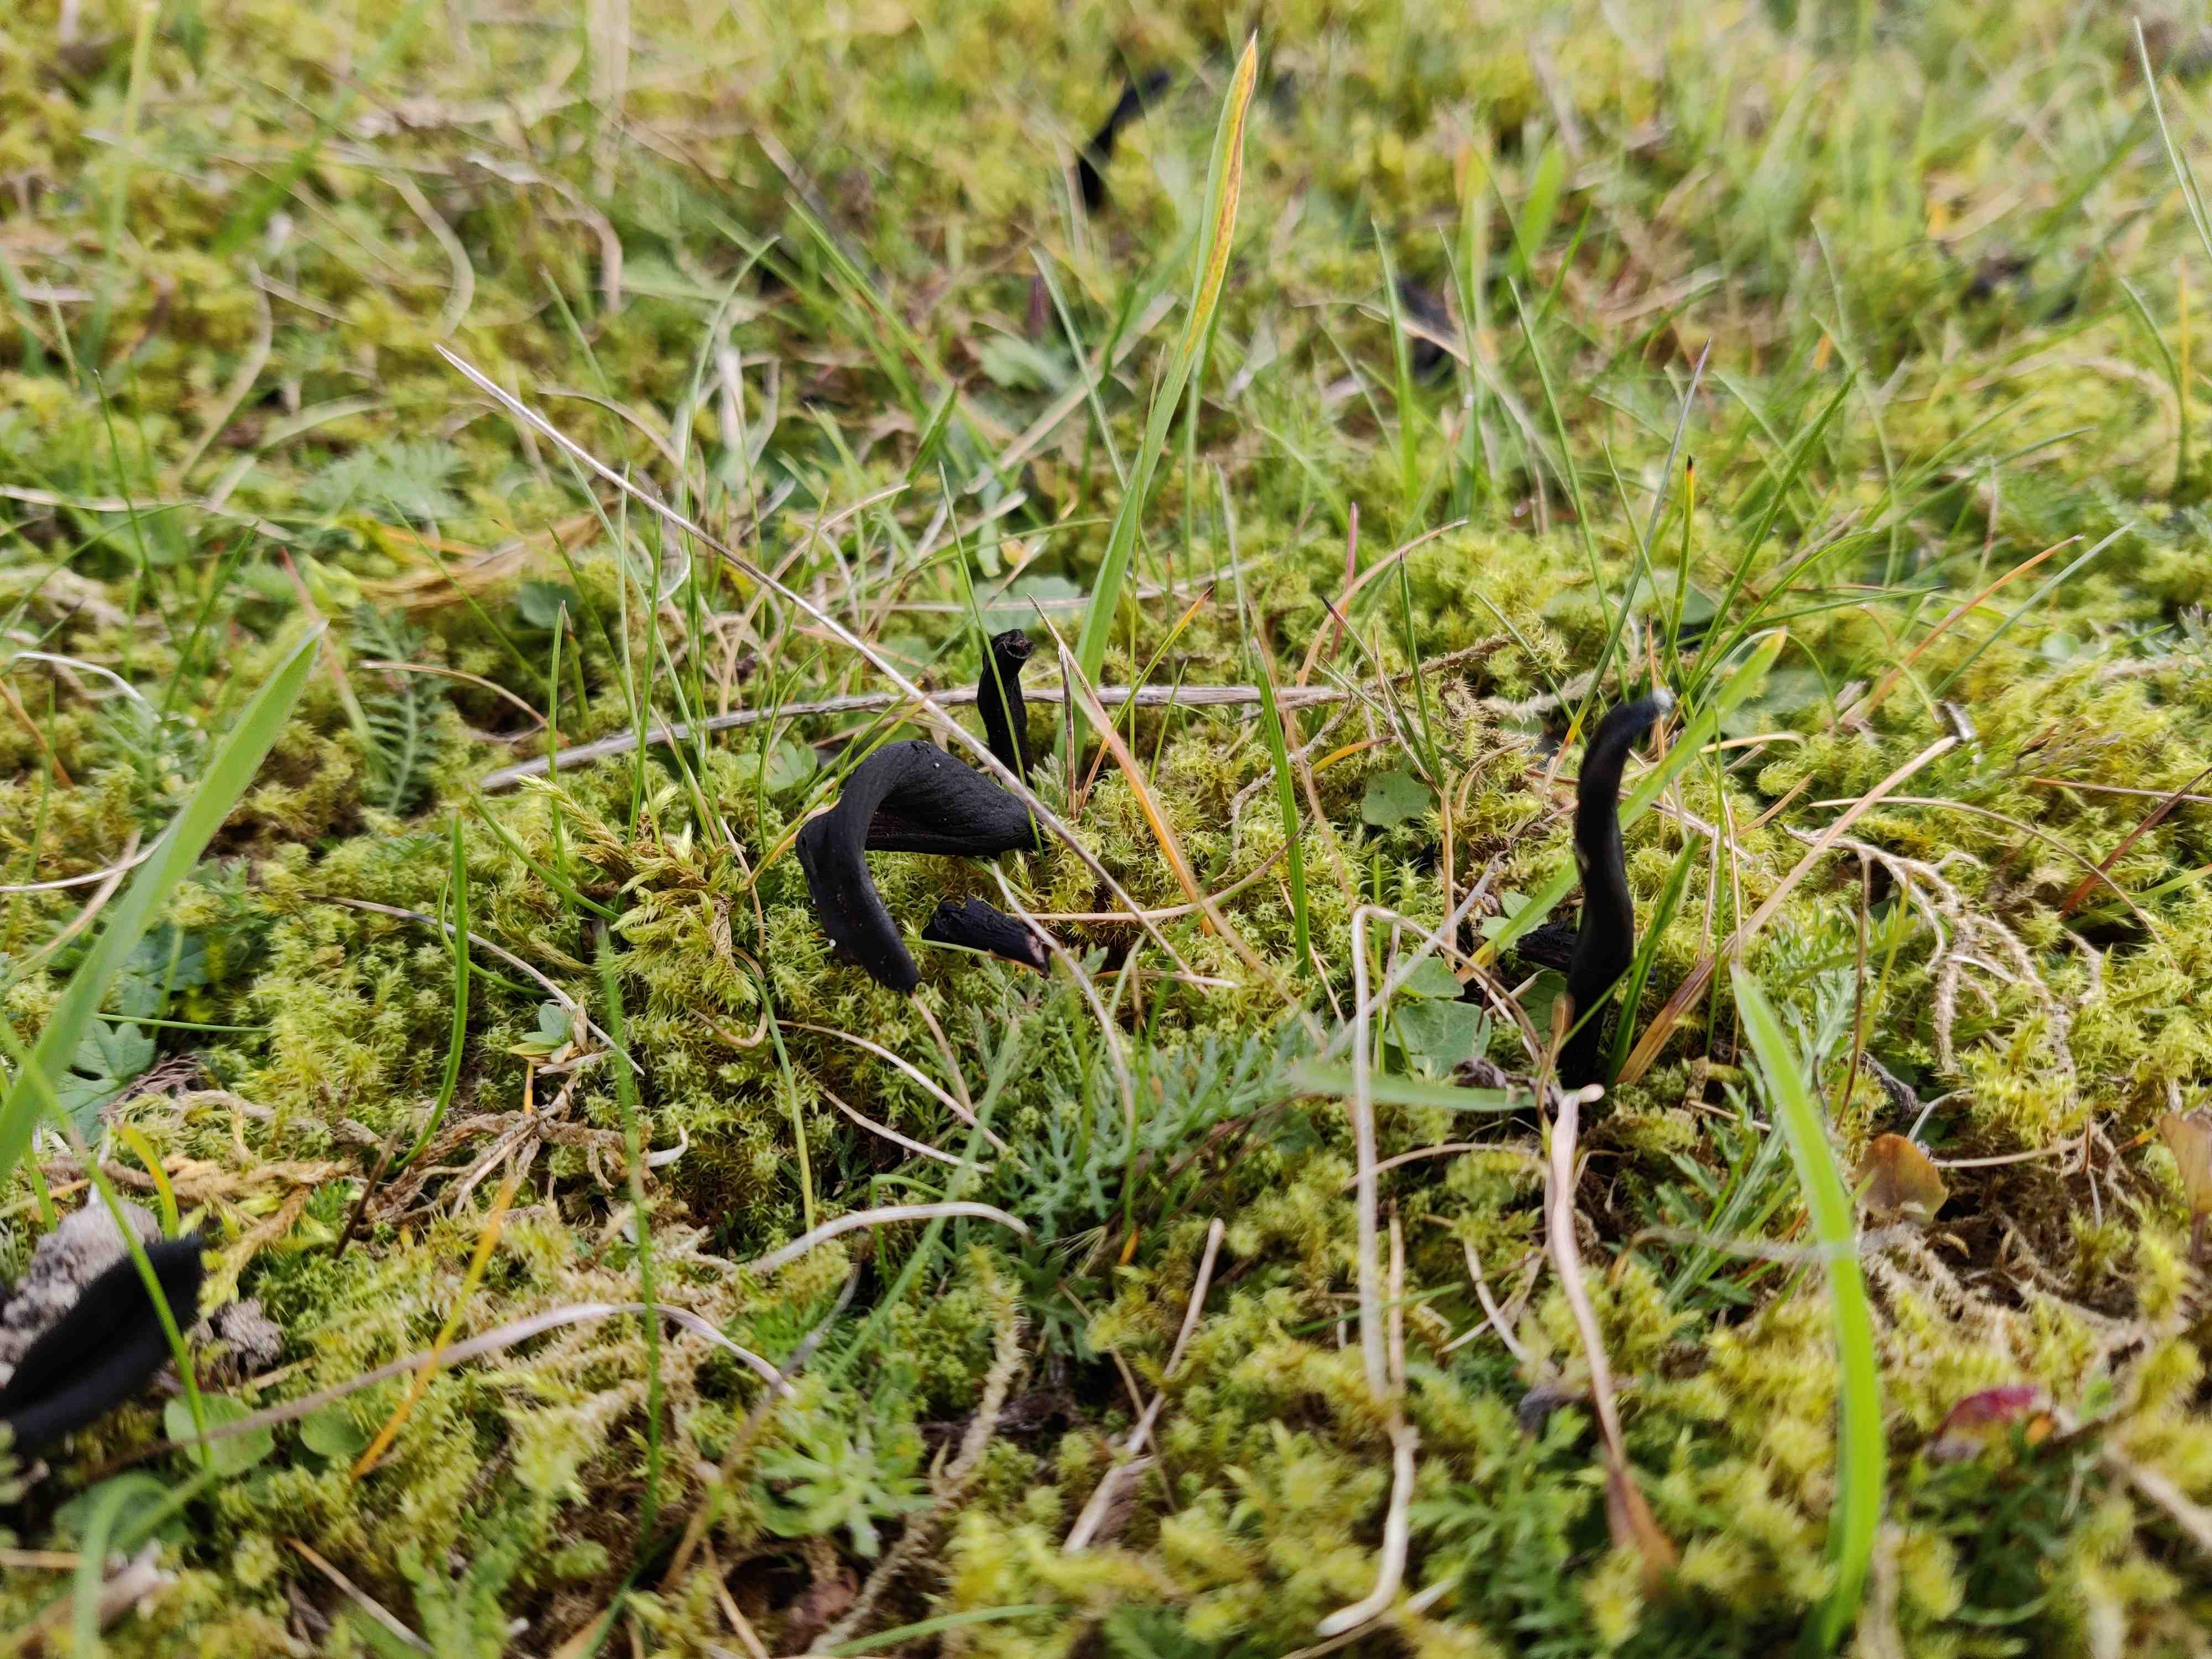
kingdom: Fungi
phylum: Ascomycota
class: Geoglossomycetes
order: Geoglossales
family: Geoglossaceae
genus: Geoglossum
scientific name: Geoglossum cookeianum
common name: bred jordtunge
